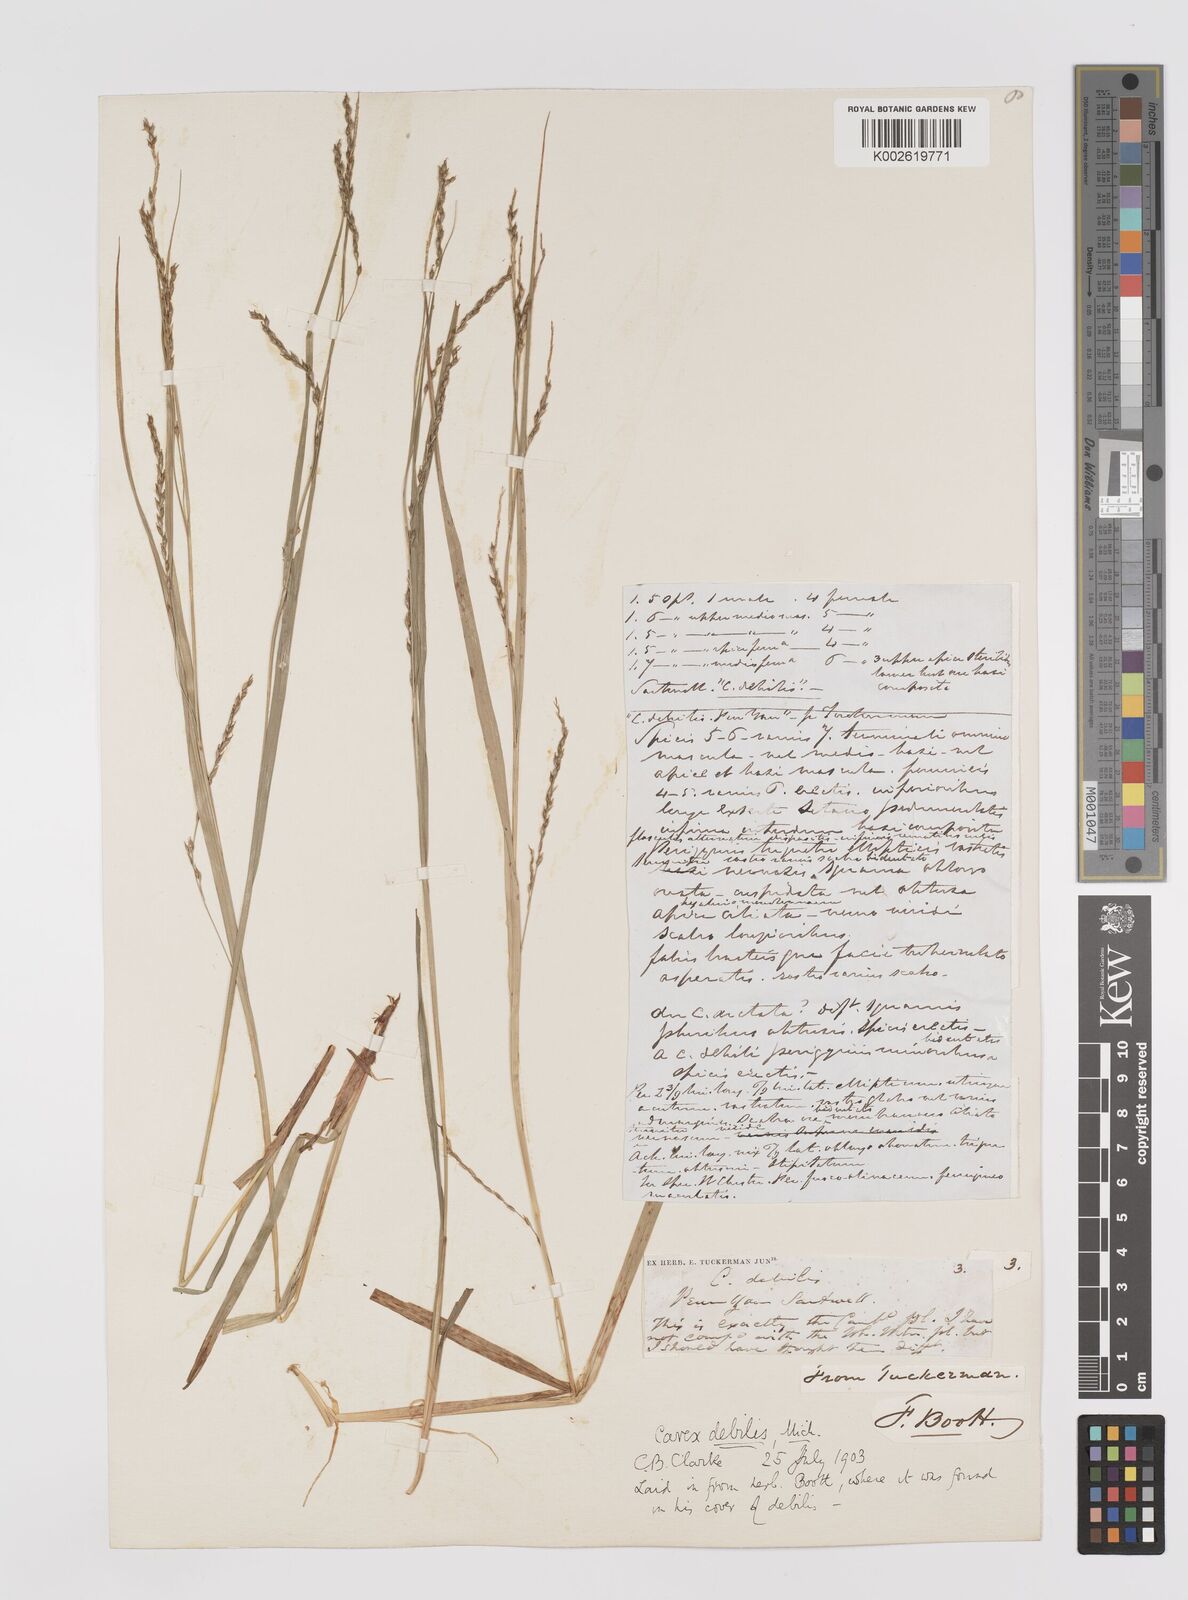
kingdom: Plantae
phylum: Tracheophyta
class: Liliopsida
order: Poales
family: Cyperaceae
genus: Carex
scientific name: Carex debilis
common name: White-edge sedge
